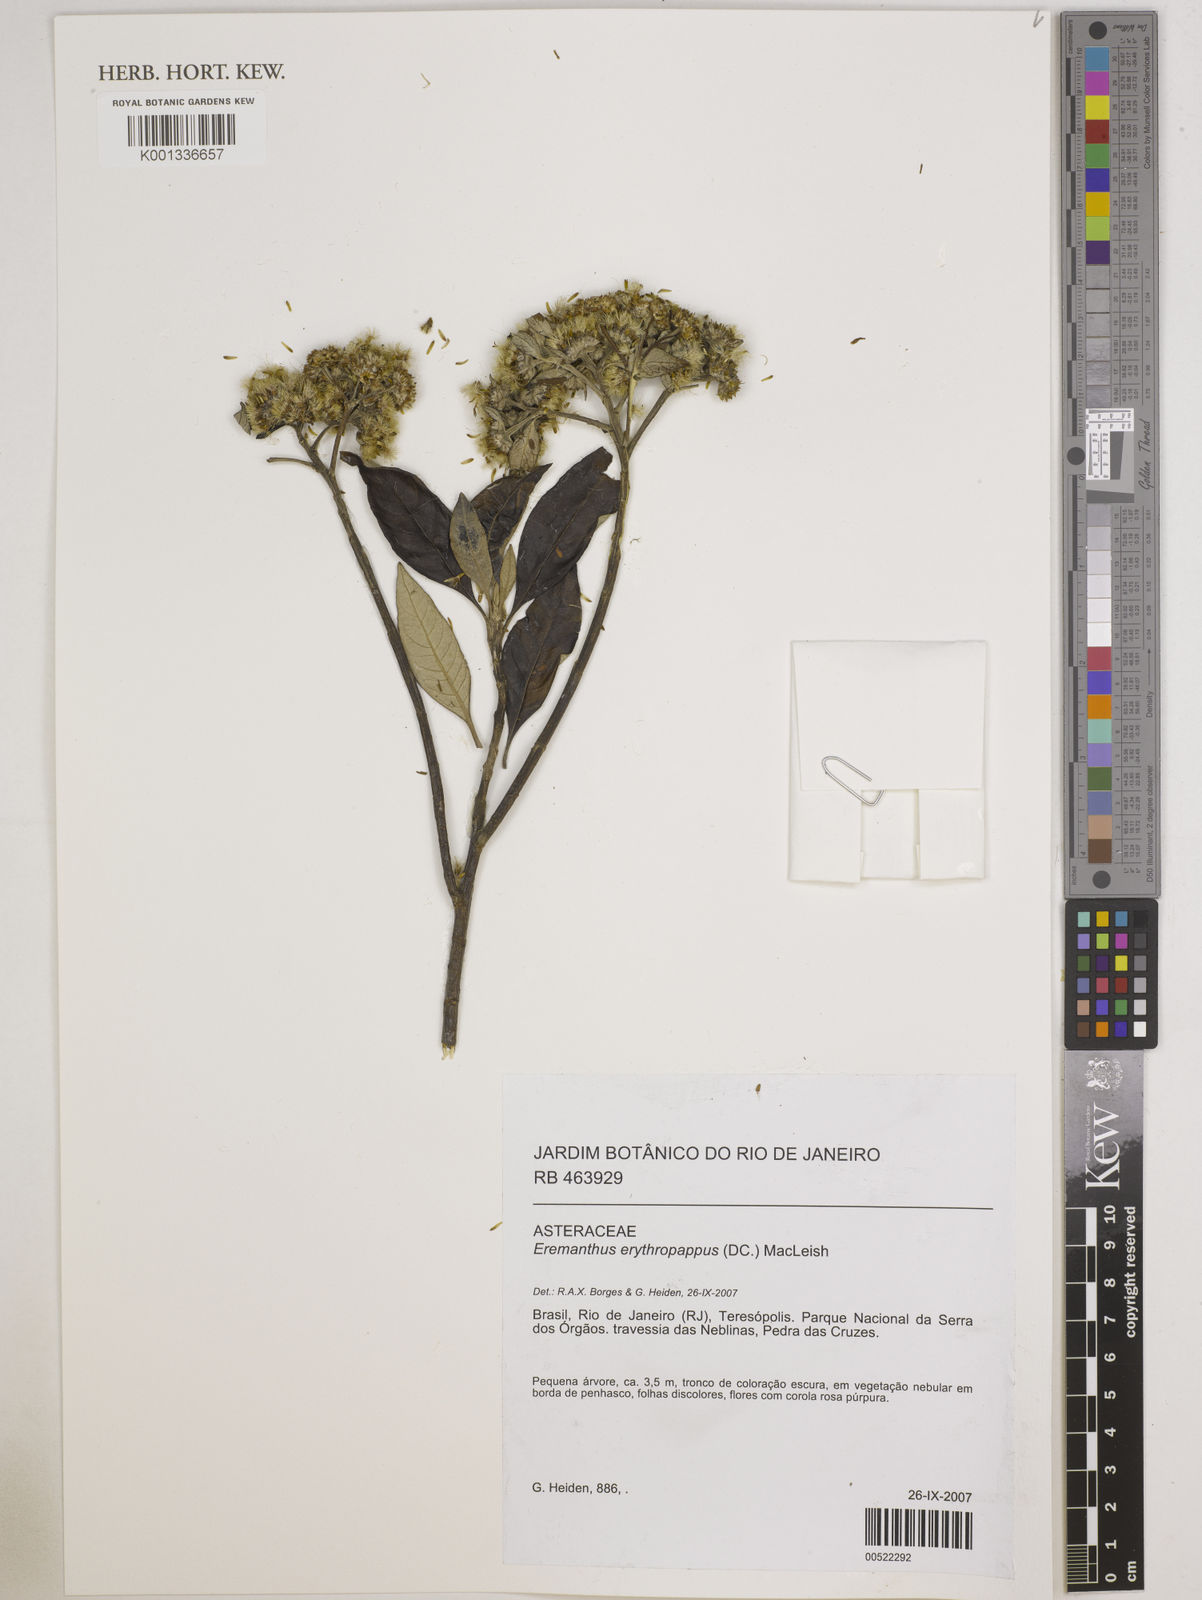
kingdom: Plantae
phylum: Tracheophyta
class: Magnoliopsida
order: Asterales
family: Asteraceae
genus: Eremanthus
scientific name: Eremanthus erythropappus
